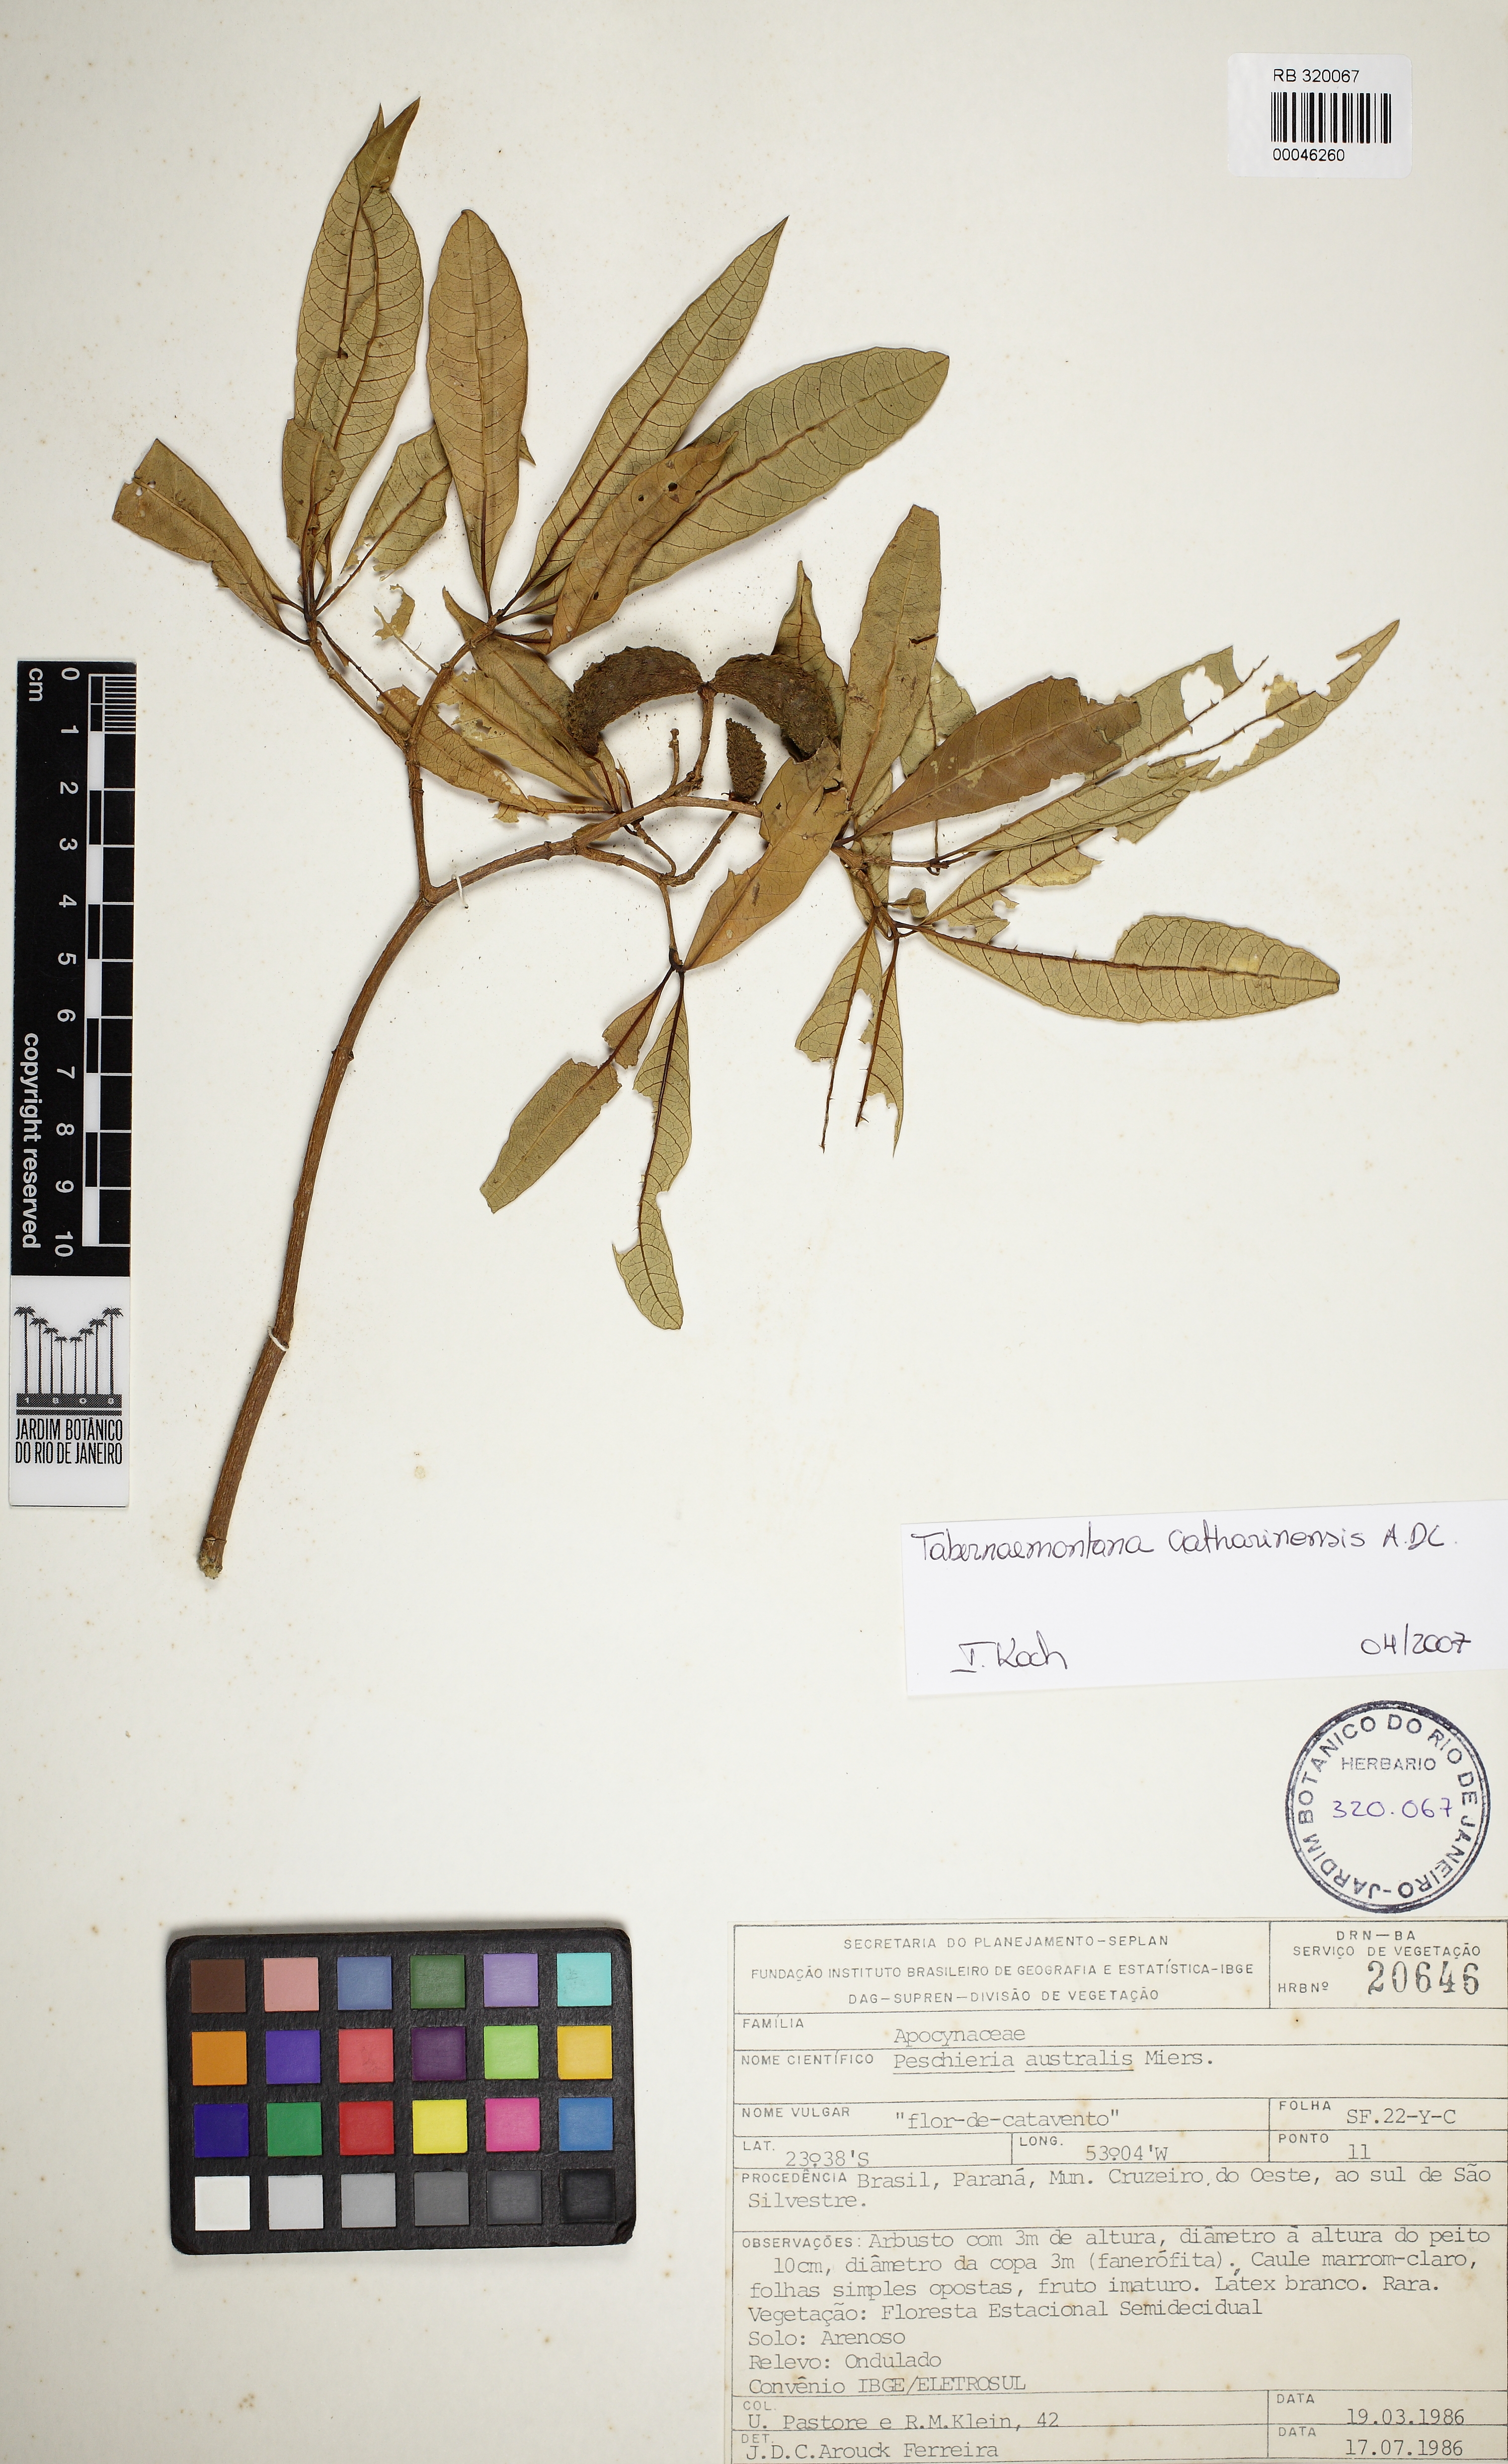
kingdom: Plantae
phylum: Tracheophyta
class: Magnoliopsida
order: Gentianales
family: Apocynaceae
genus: Tabernaemontana
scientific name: Tabernaemontana catharinensis
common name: Pinwheel-flower
